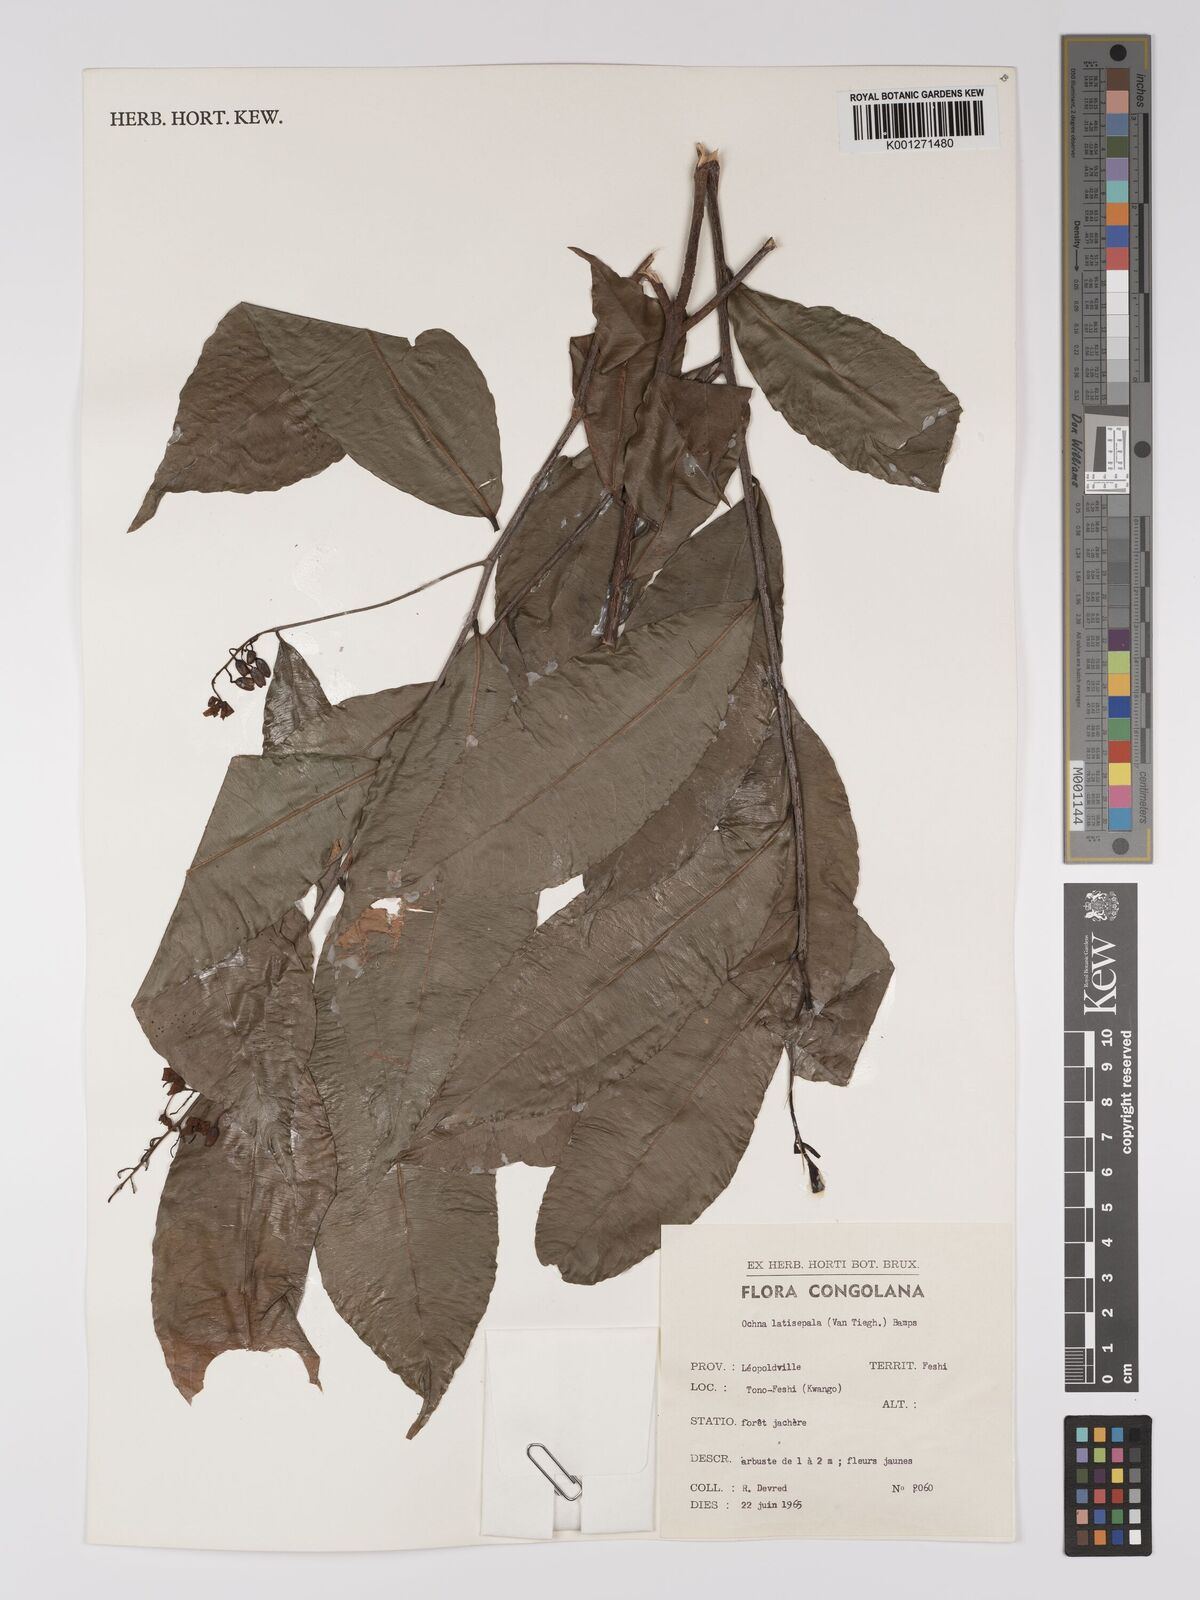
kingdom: Plantae
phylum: Tracheophyta
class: Magnoliopsida
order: Malpighiales
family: Ochnaceae
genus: Ochna
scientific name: Ochna latisepala
